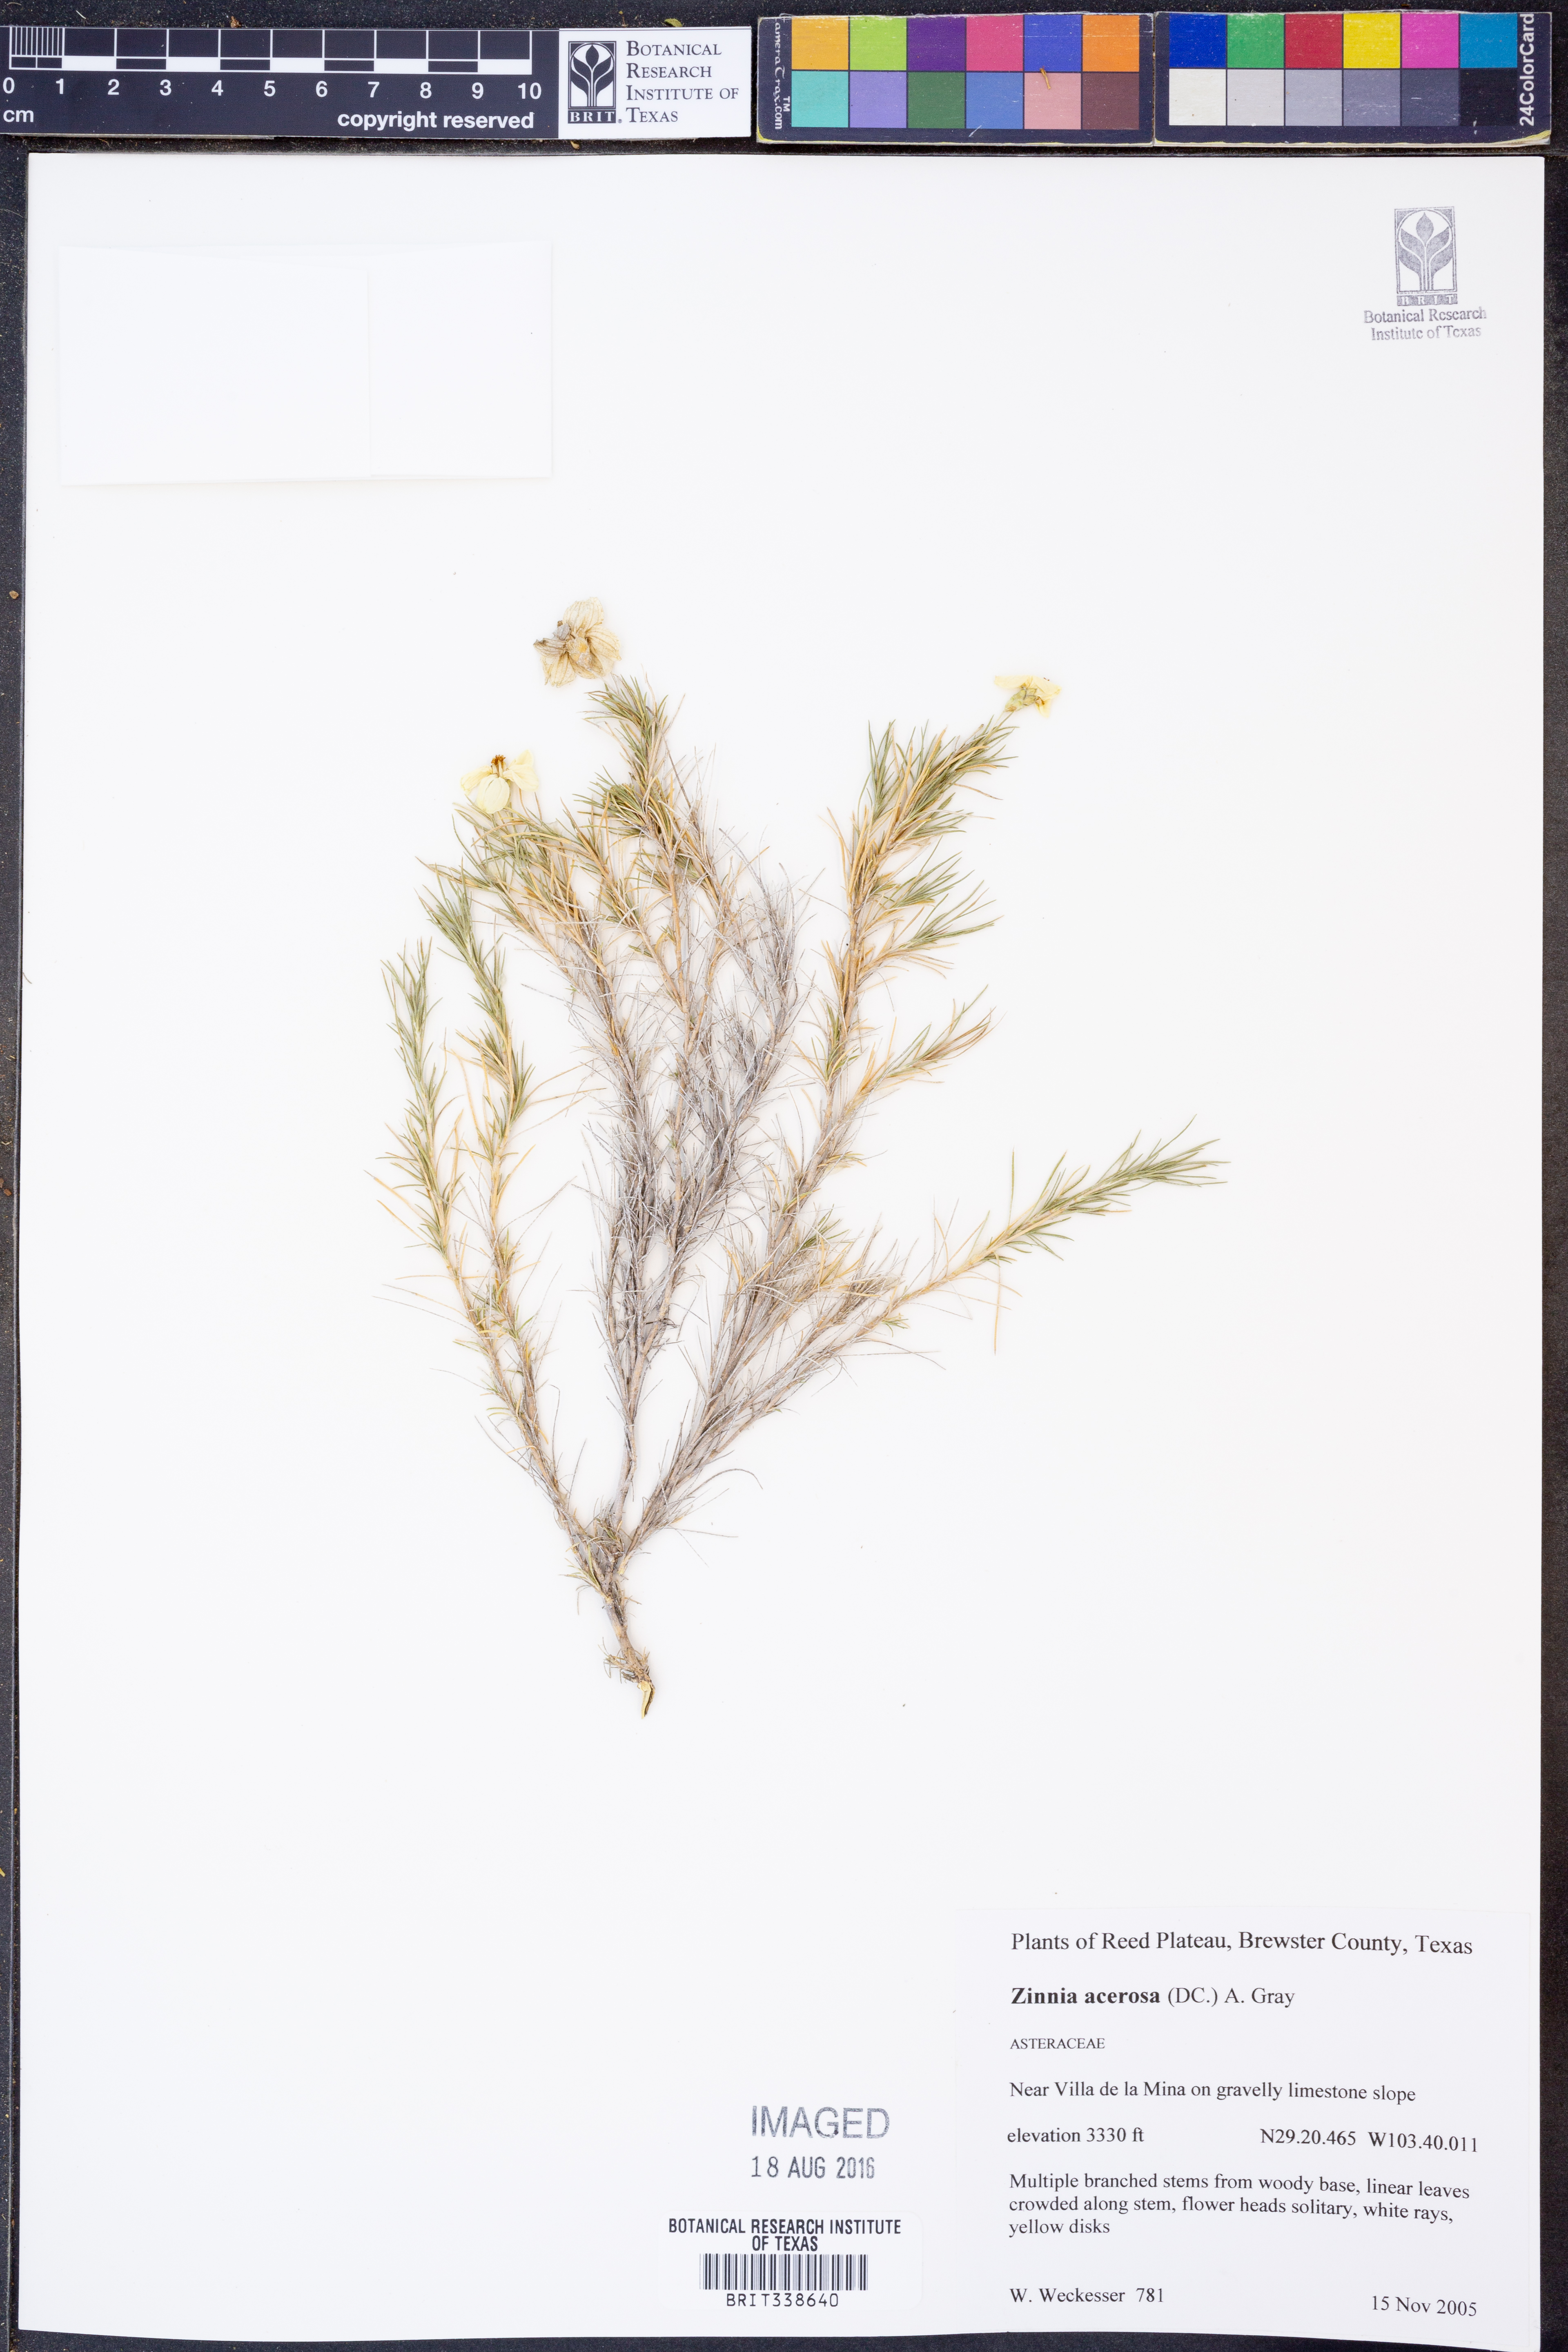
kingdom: Plantae
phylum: Tracheophyta
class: Magnoliopsida
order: Asterales
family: Asteraceae
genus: Zinnia
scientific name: Zinnia acerosa
